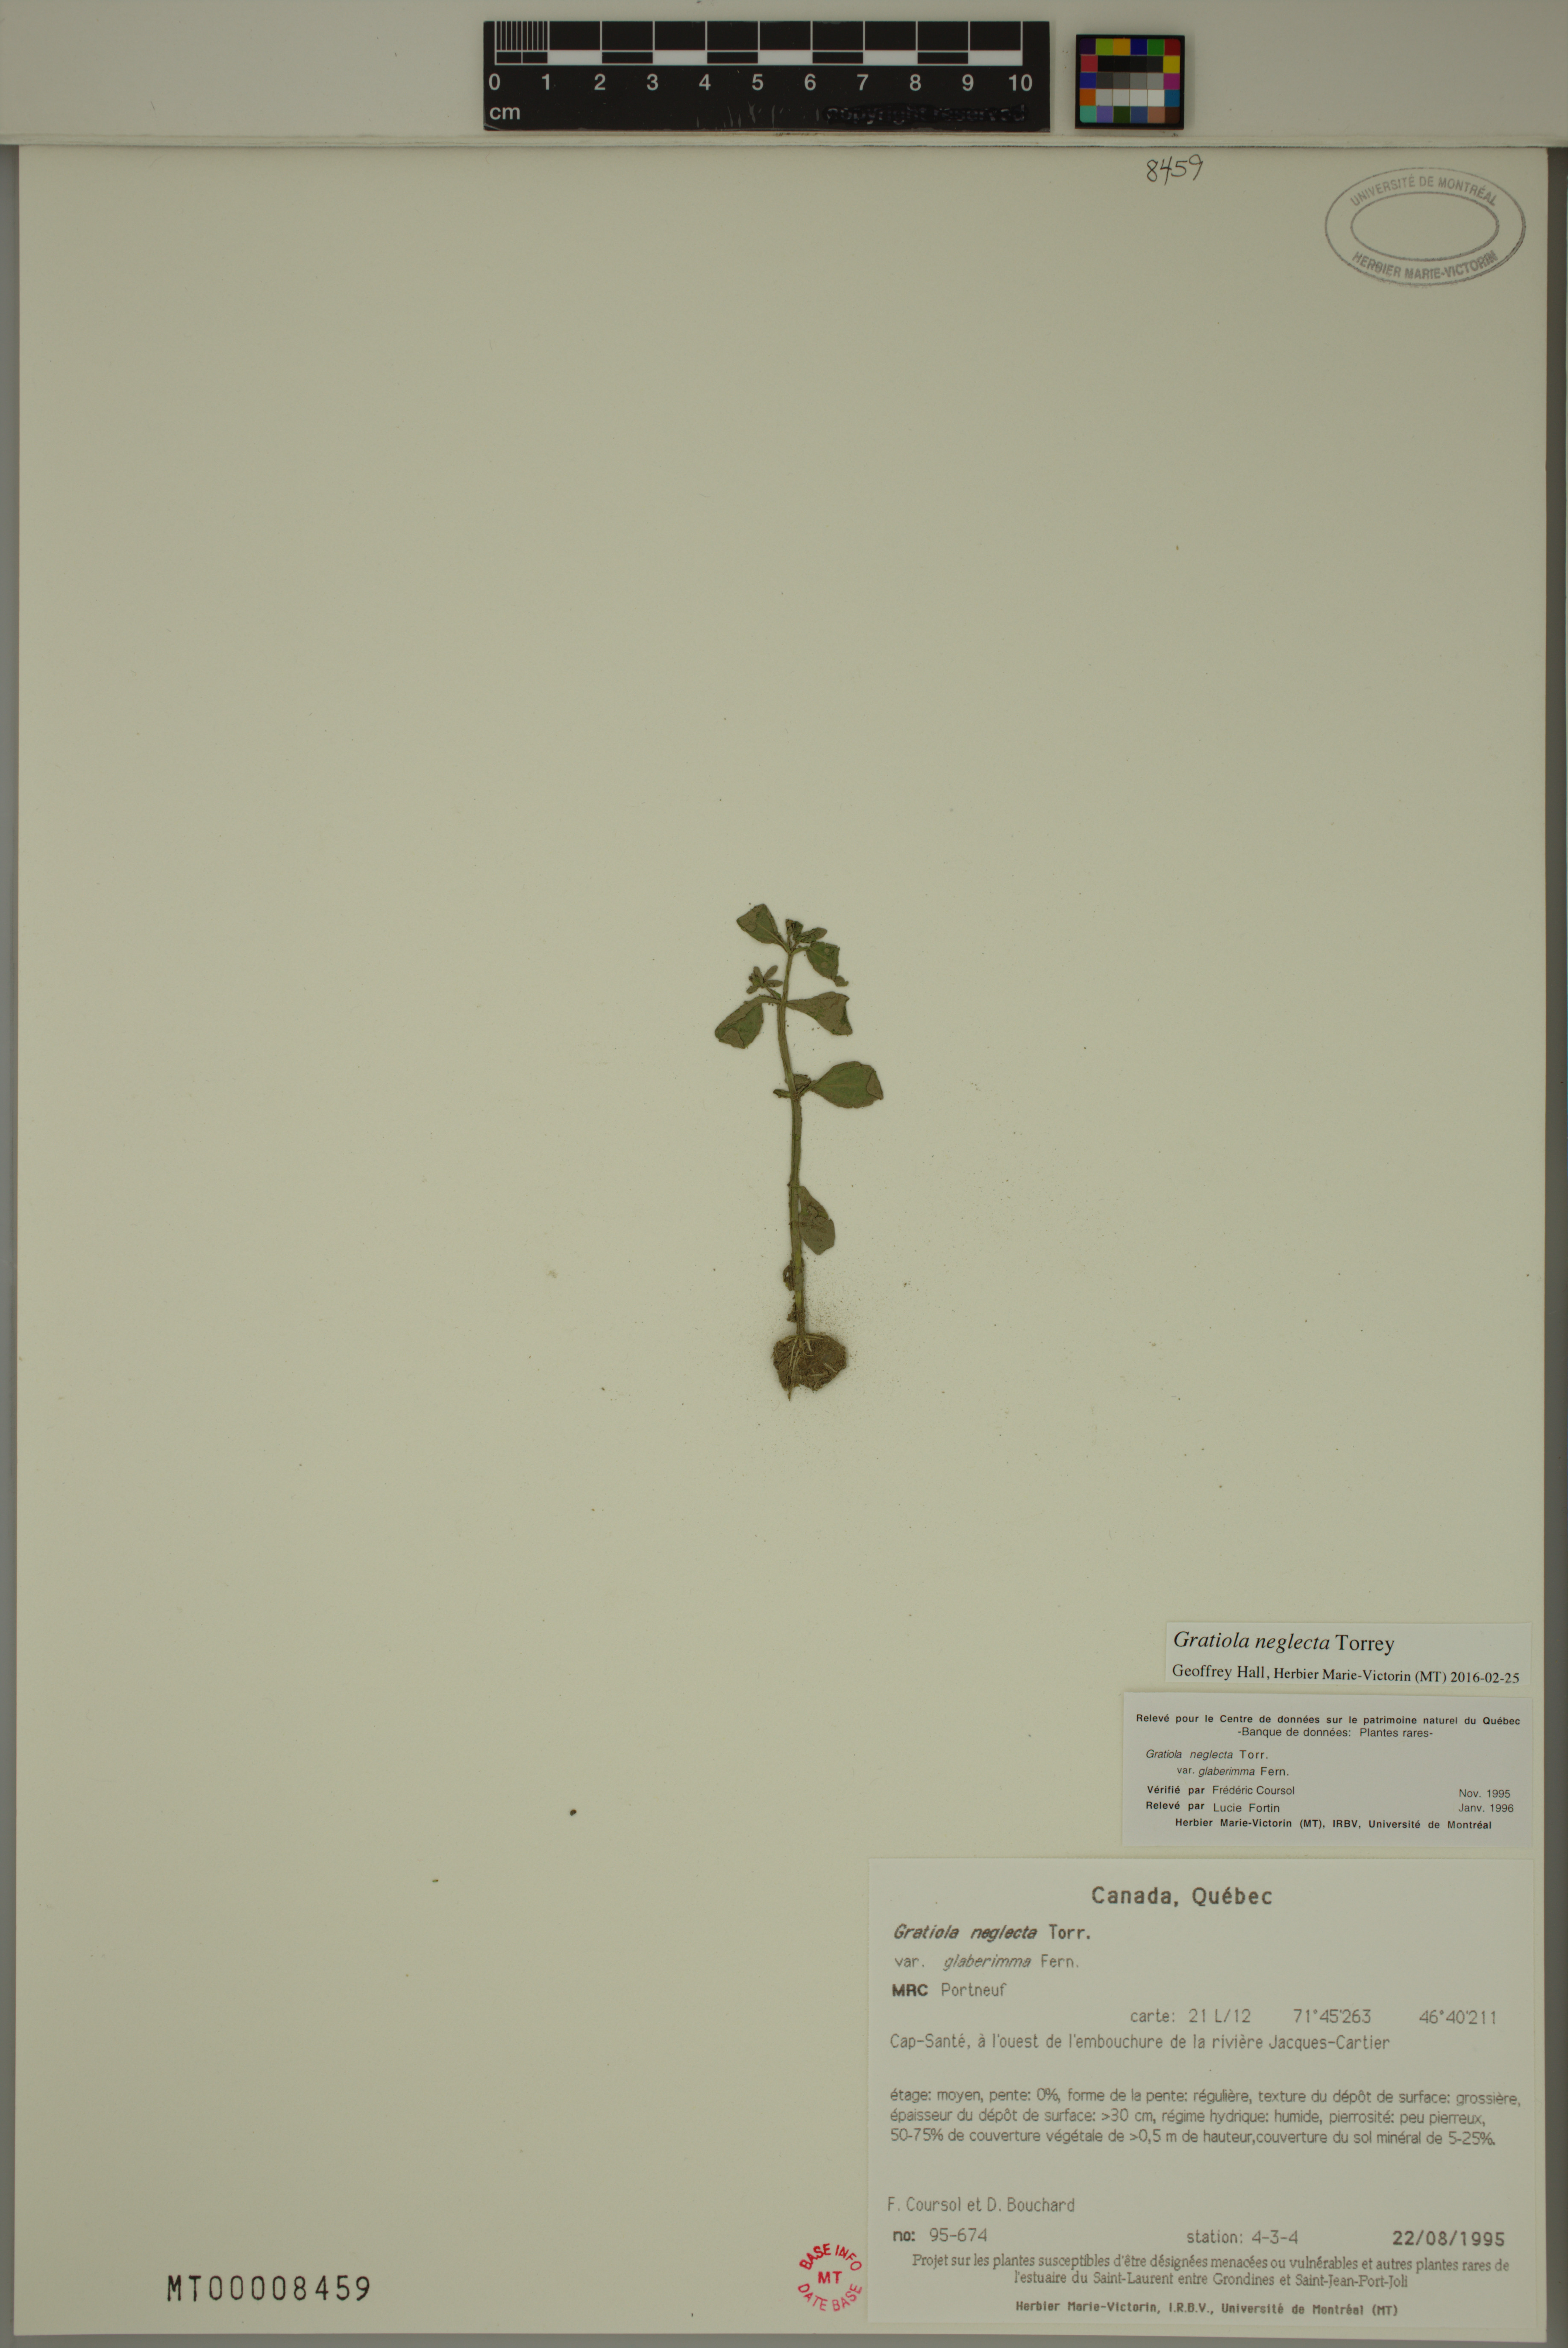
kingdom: Plantae
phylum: Tracheophyta
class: Magnoliopsida
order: Lamiales
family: Plantaginaceae
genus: Gratiola
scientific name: Gratiola neglecta
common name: American hedge-hyssop
